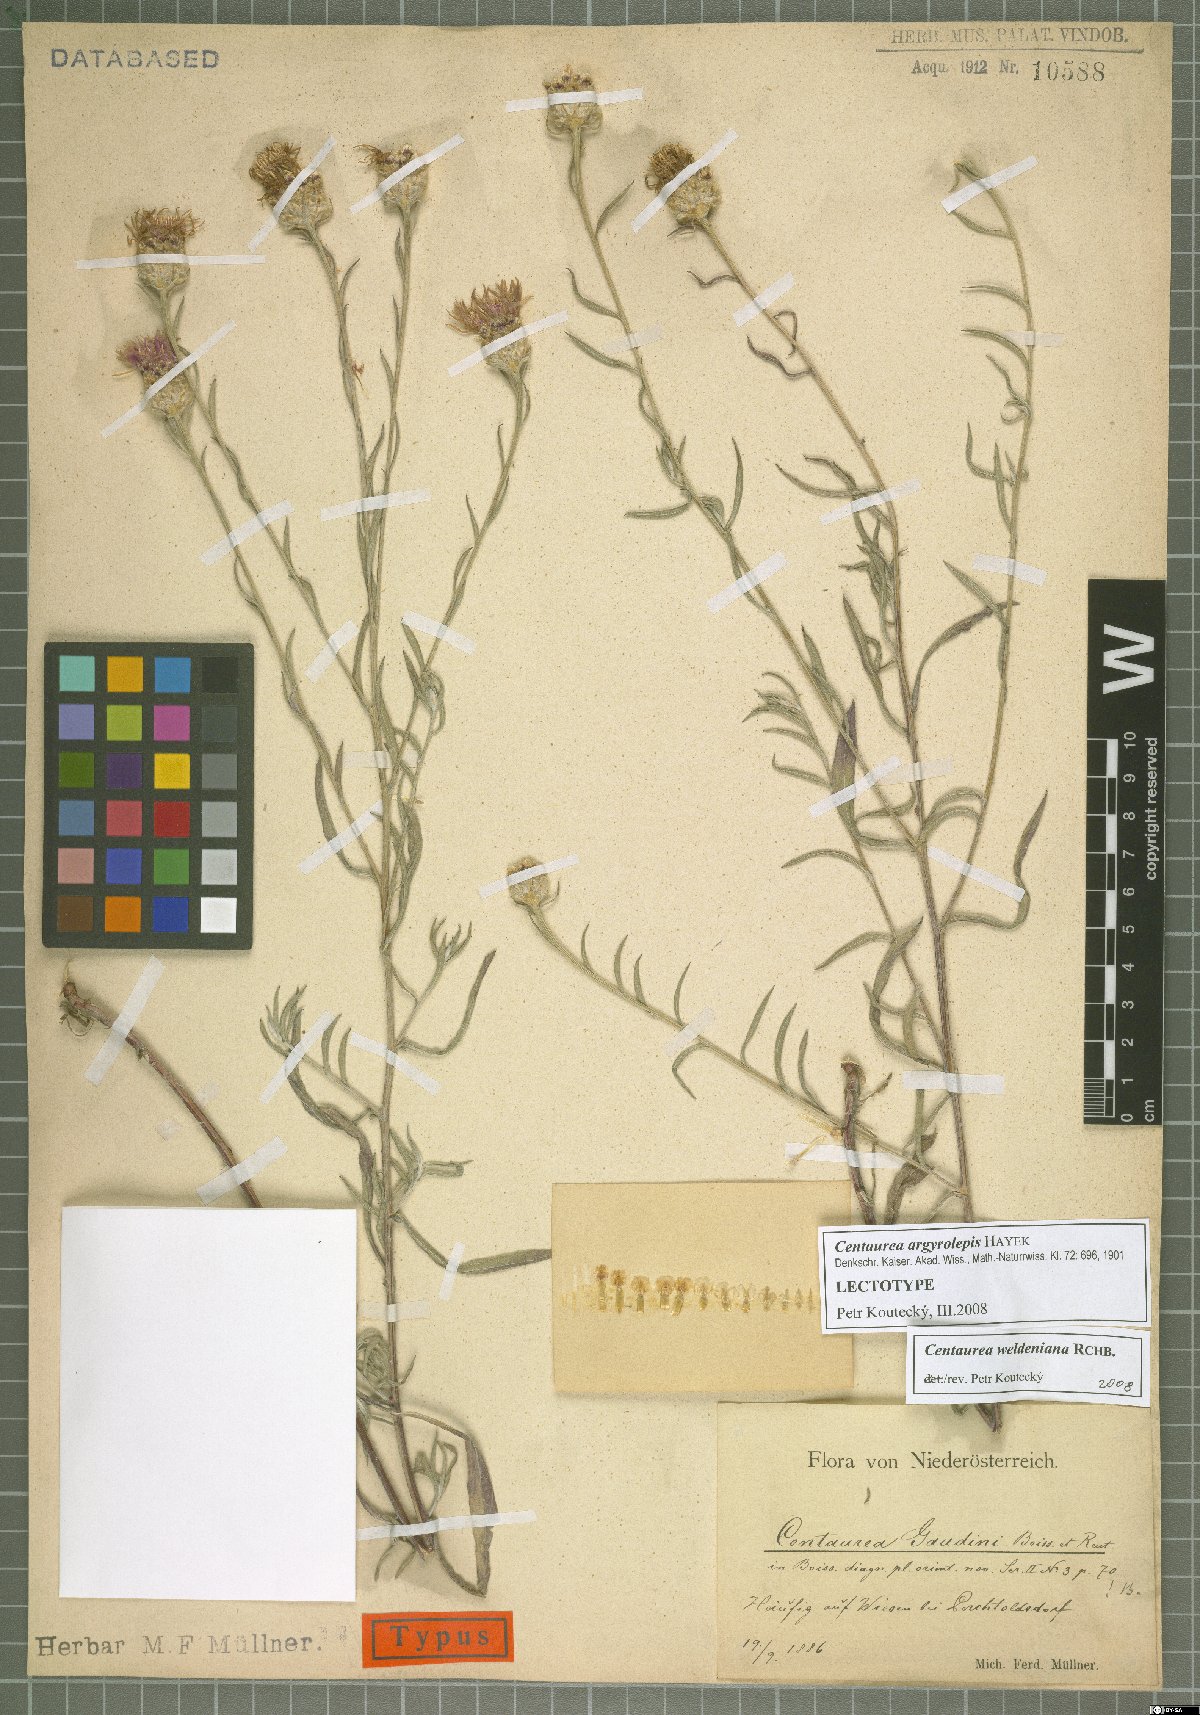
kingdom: Plantae
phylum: Tracheophyta
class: Magnoliopsida
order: Asterales
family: Asteraceae
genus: Centaurea
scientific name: Centaurea jacea
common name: Brown knapweed
